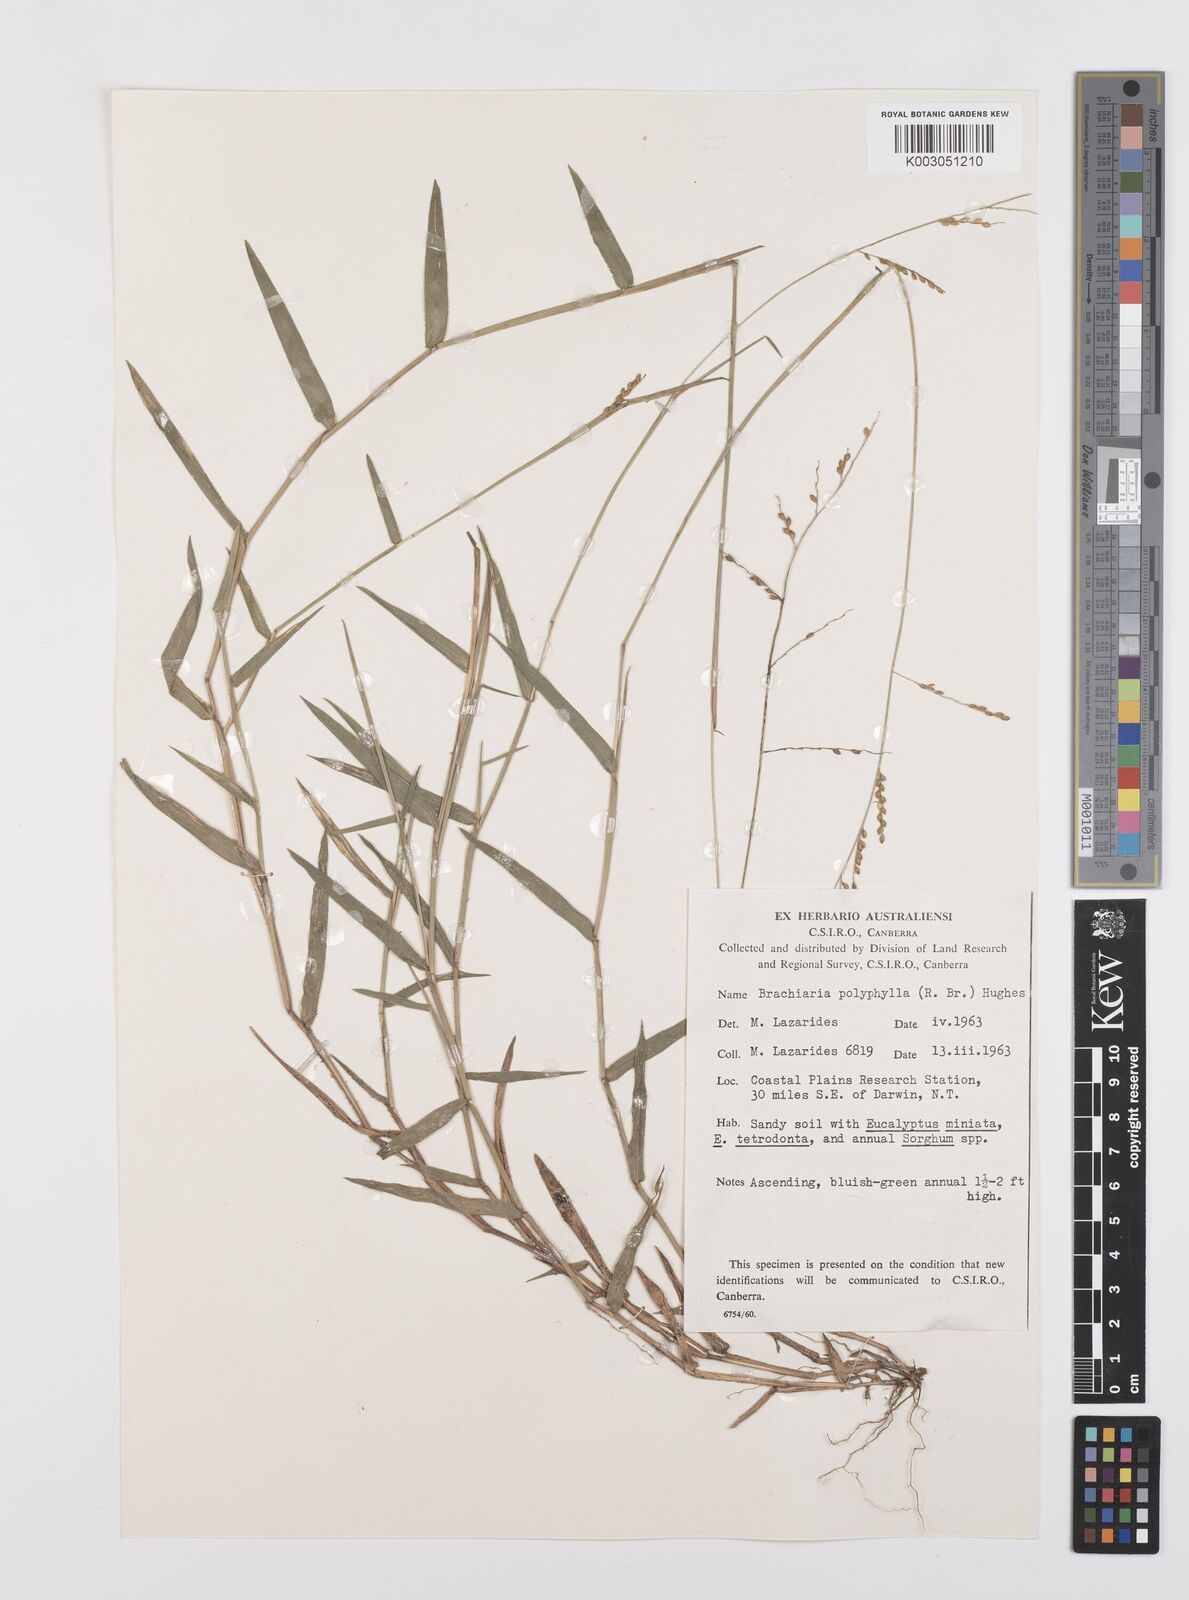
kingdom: Plantae
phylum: Tracheophyta
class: Liliopsida
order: Poales
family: Poaceae
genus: Urochloa
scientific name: Urochloa polyphylla
